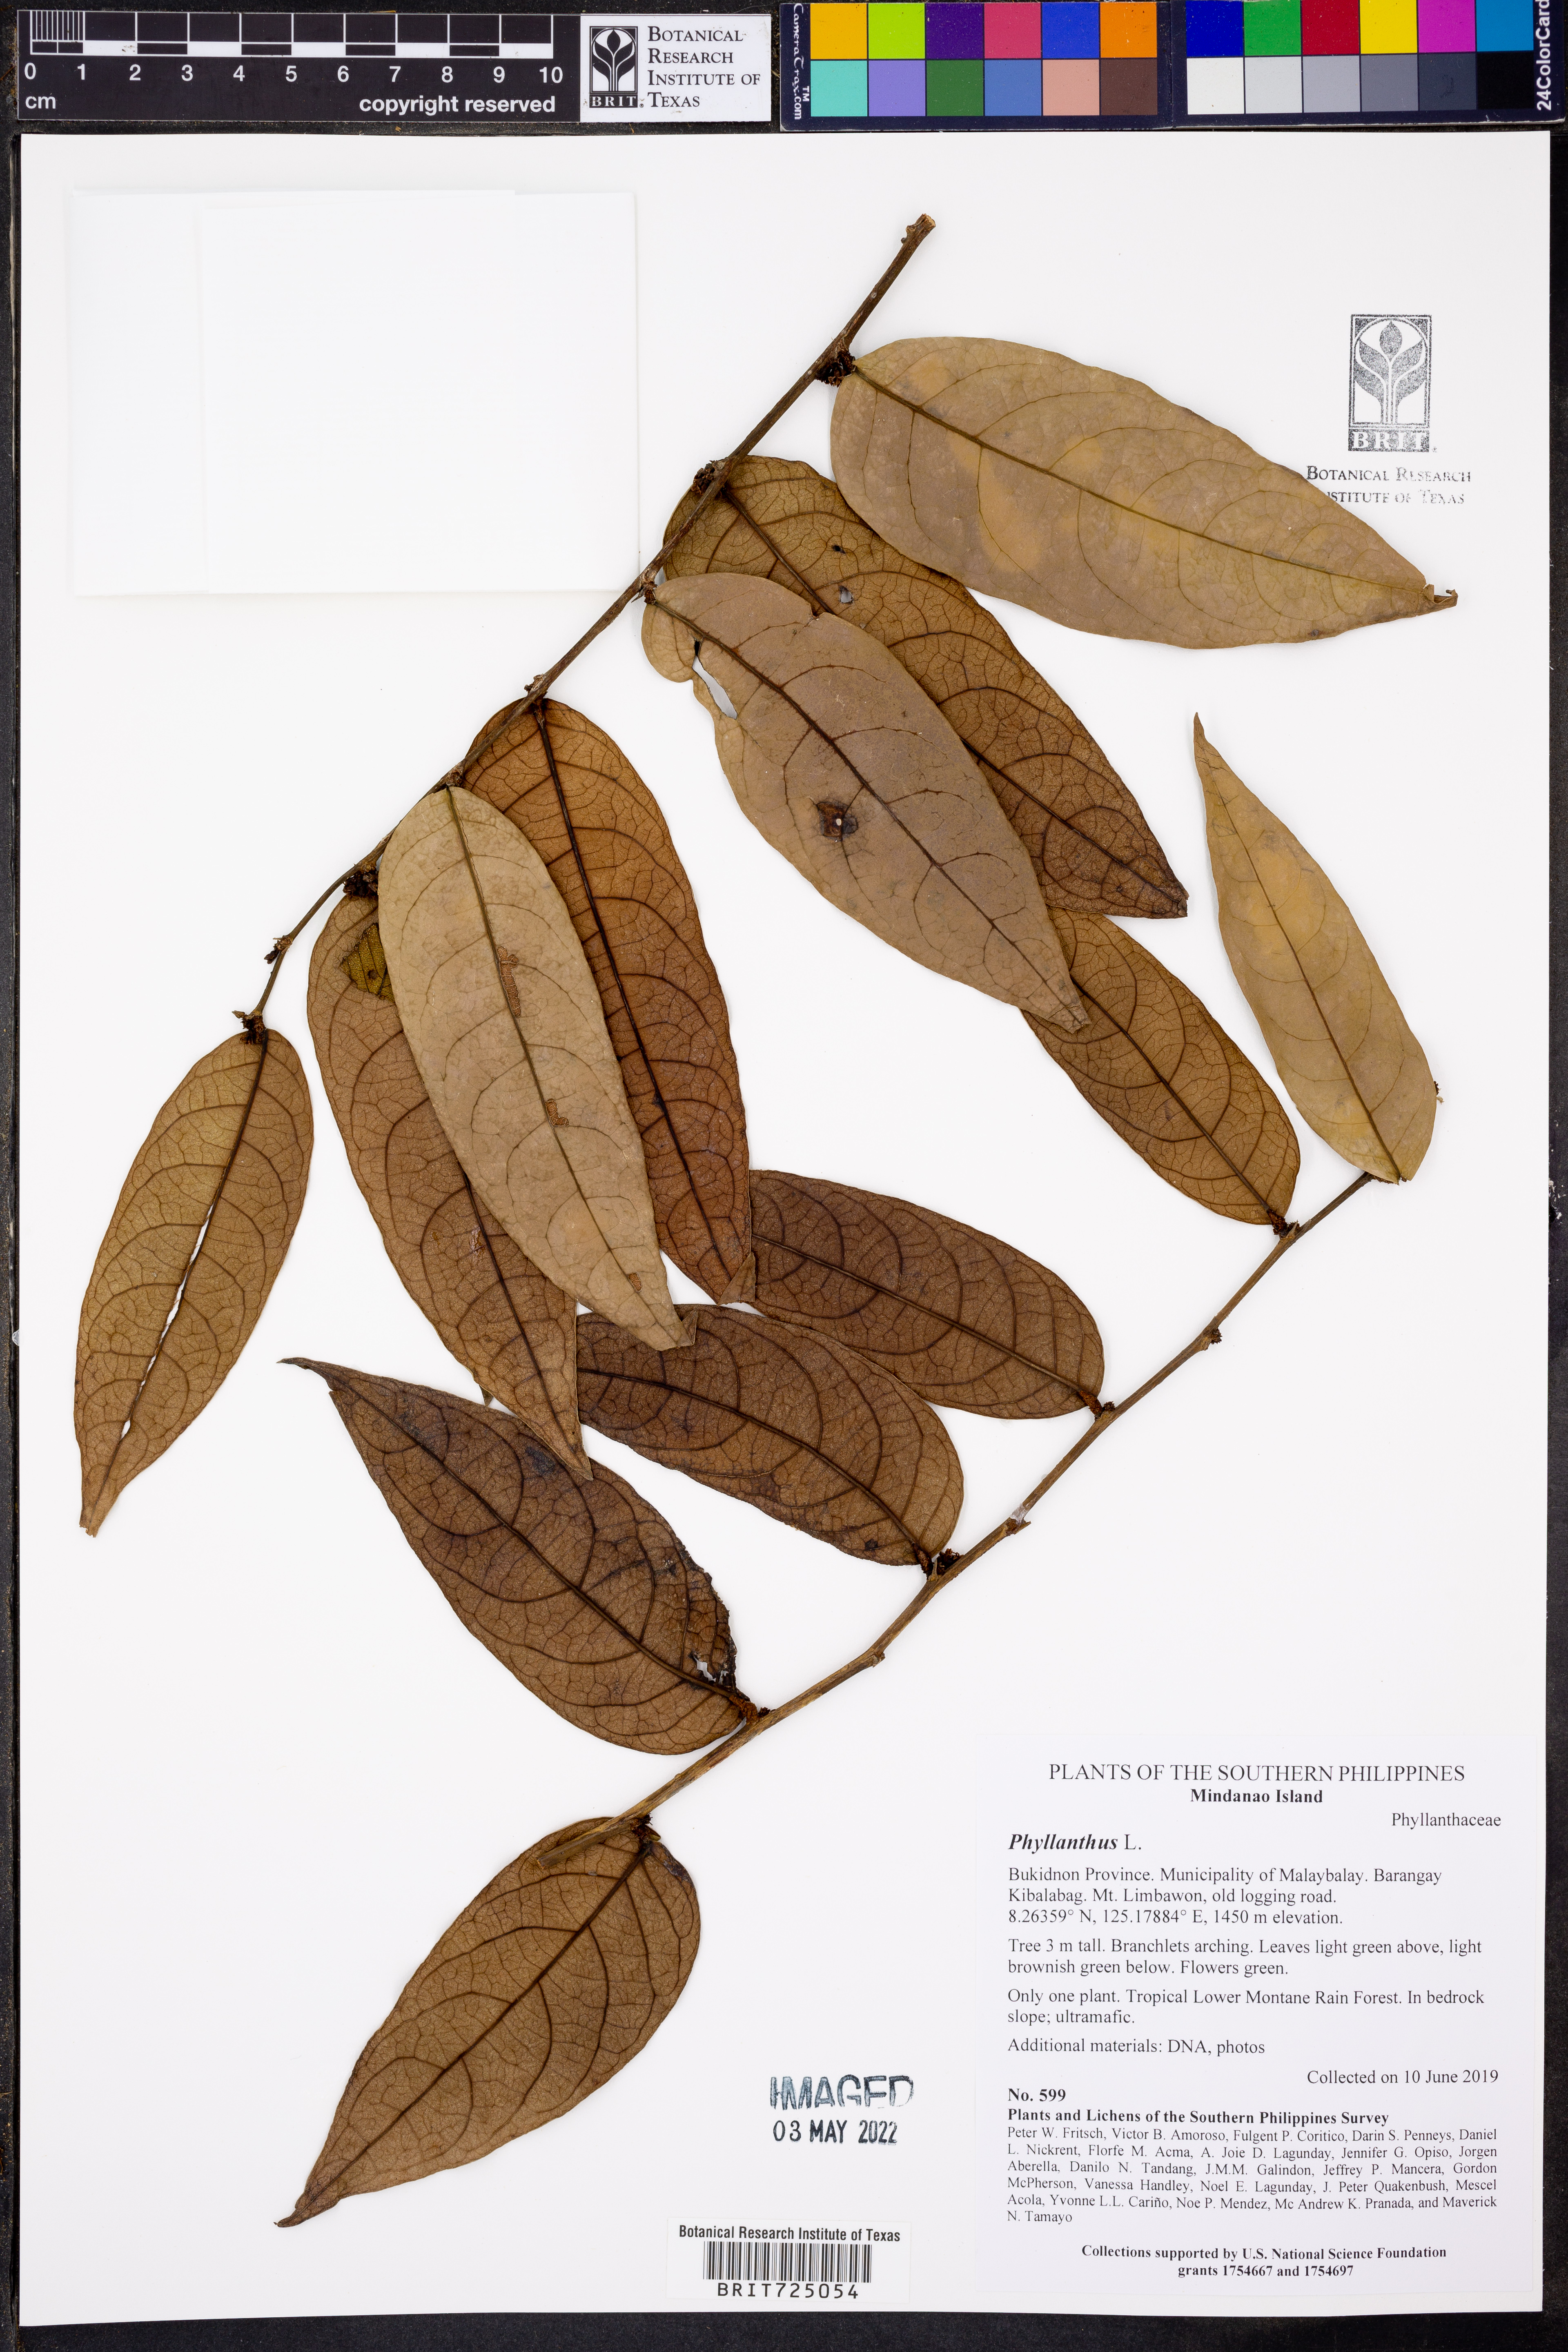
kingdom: Plantae
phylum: Tracheophyta
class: Magnoliopsida
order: Malpighiales
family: Phyllanthaceae
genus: Phyllanthus
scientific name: Phyllanthus
